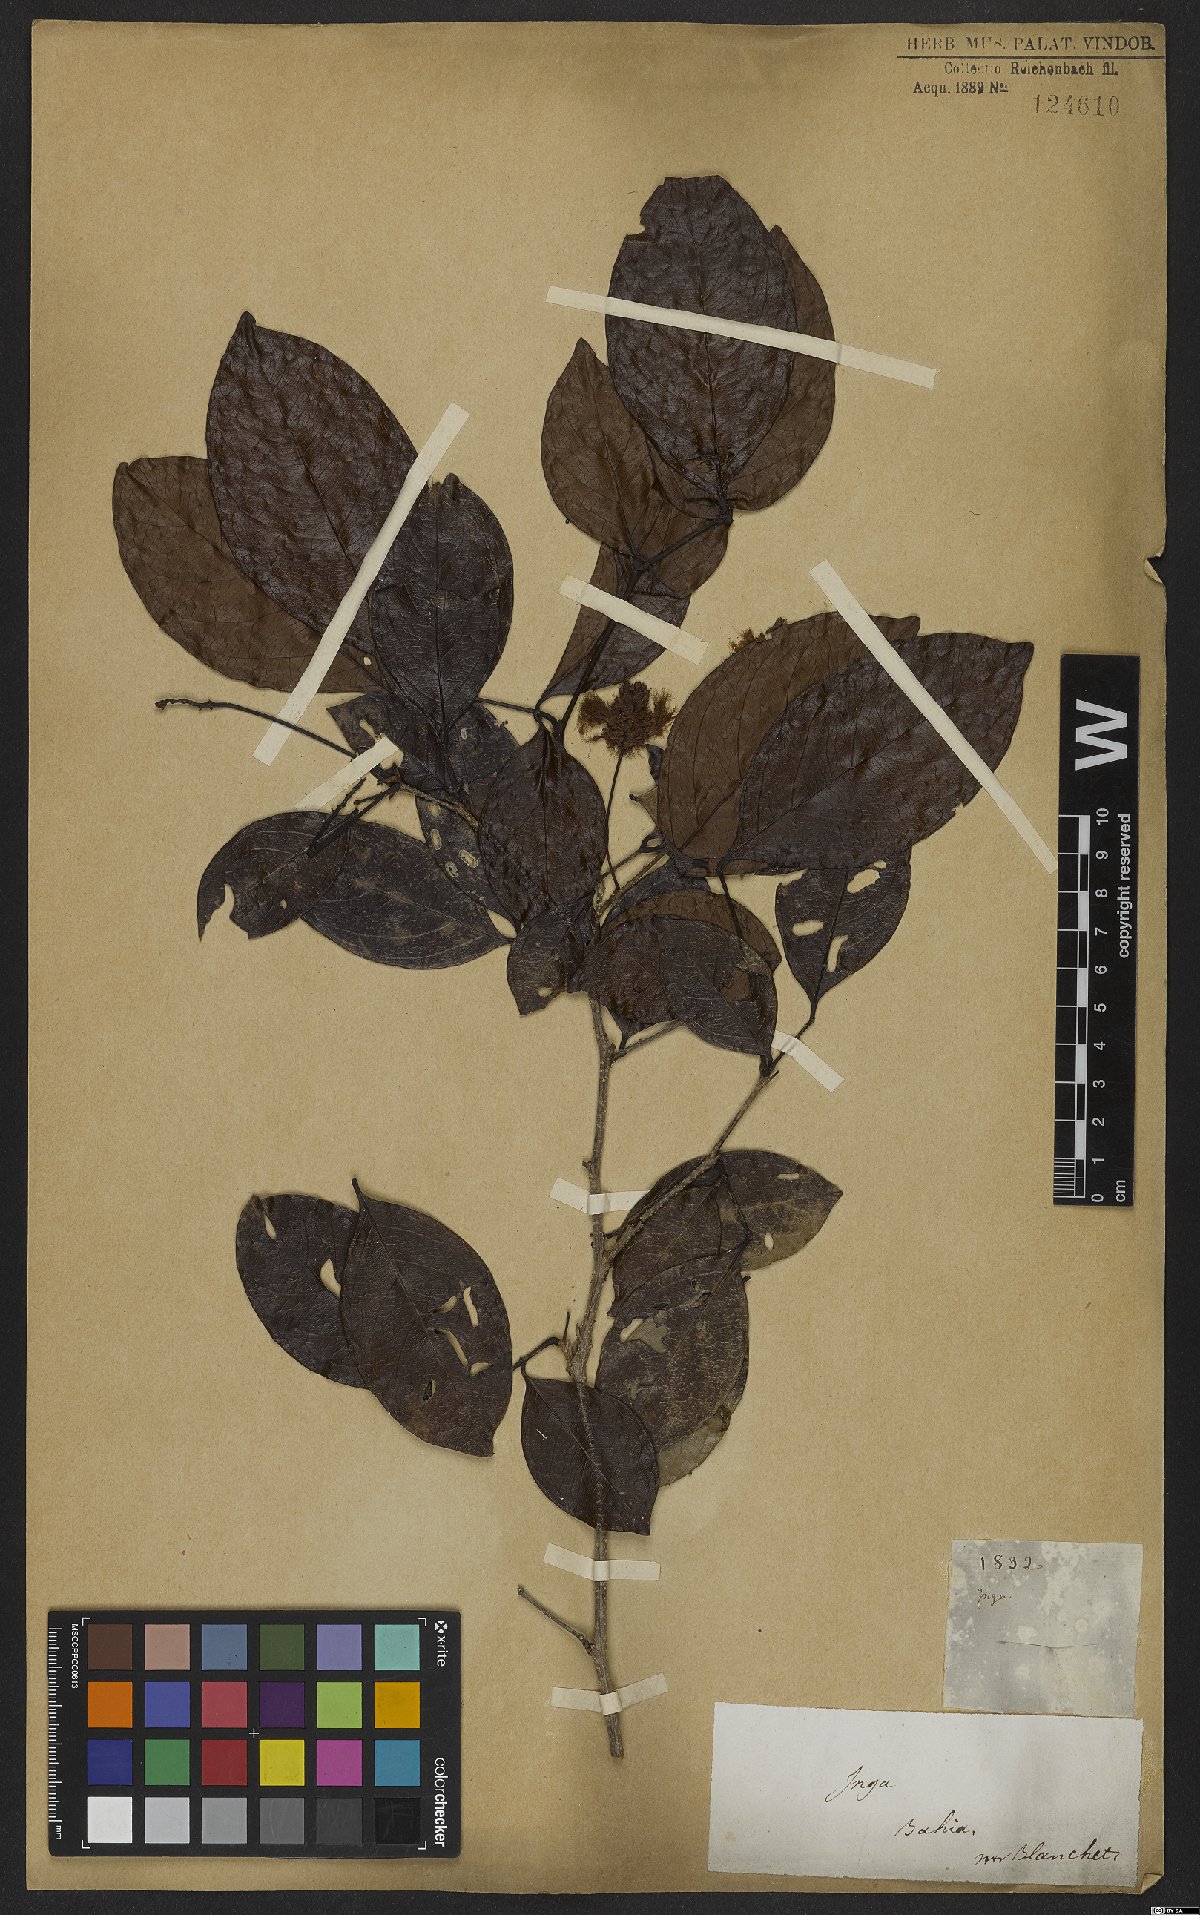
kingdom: Plantae
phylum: Tracheophyta
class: Magnoliopsida
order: Fabales
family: Fabaceae
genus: Inga
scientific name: Inga laurina
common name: Red wood
